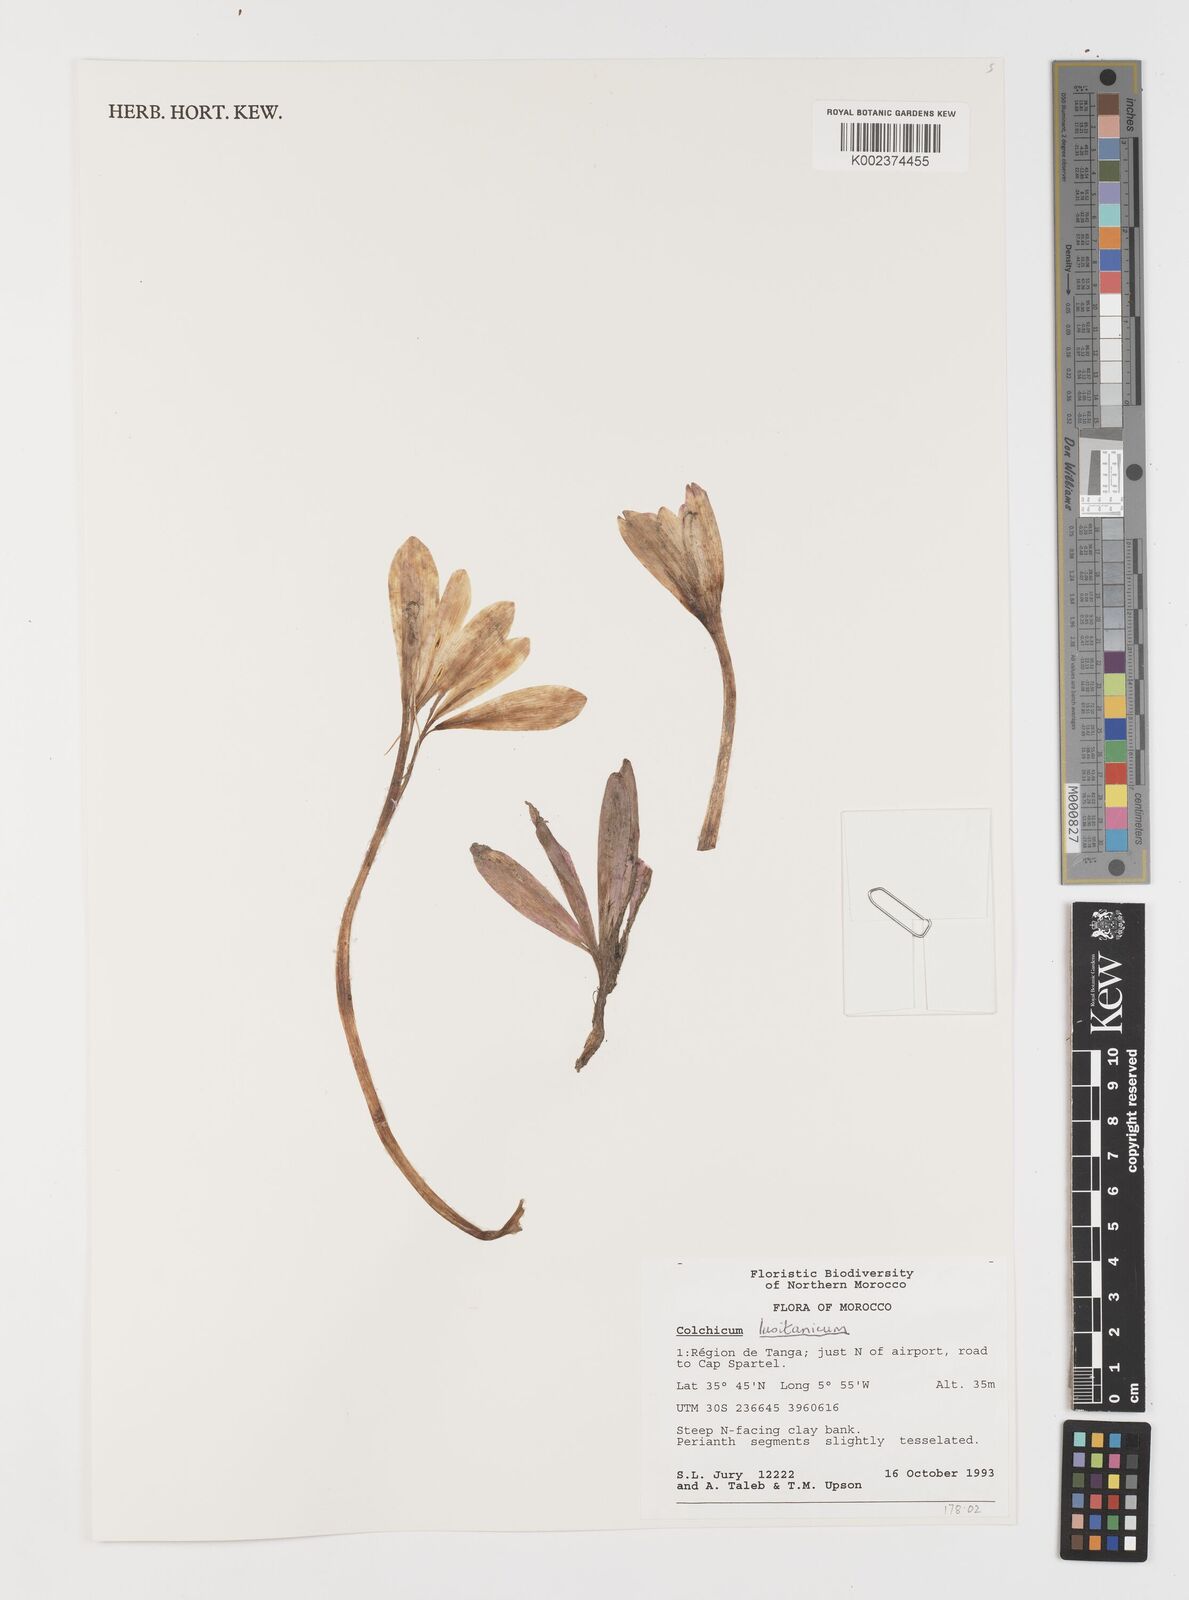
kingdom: Plantae
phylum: Tracheophyta
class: Liliopsida
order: Liliales
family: Colchicaceae
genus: Colchicum
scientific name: Colchicum lusitanum
